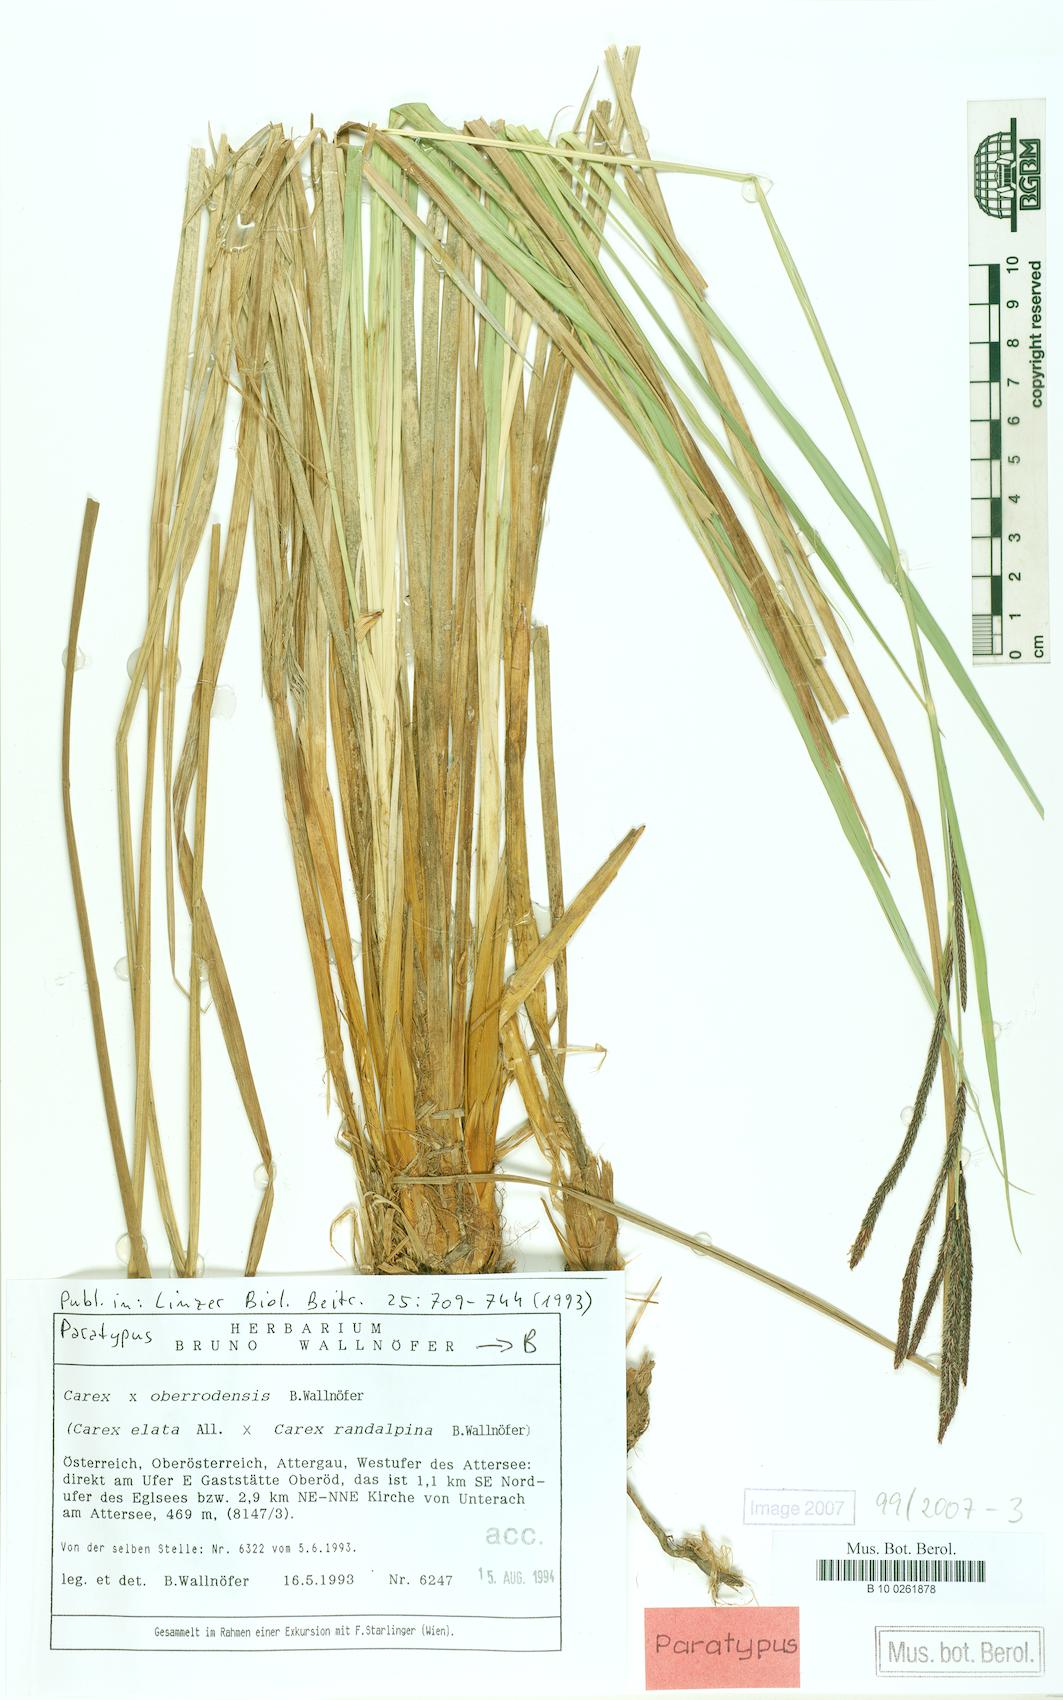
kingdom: Plantae
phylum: Tracheophyta
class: Liliopsida
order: Poales
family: Cyperaceae
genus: Carex
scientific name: Carex oberrodensis
